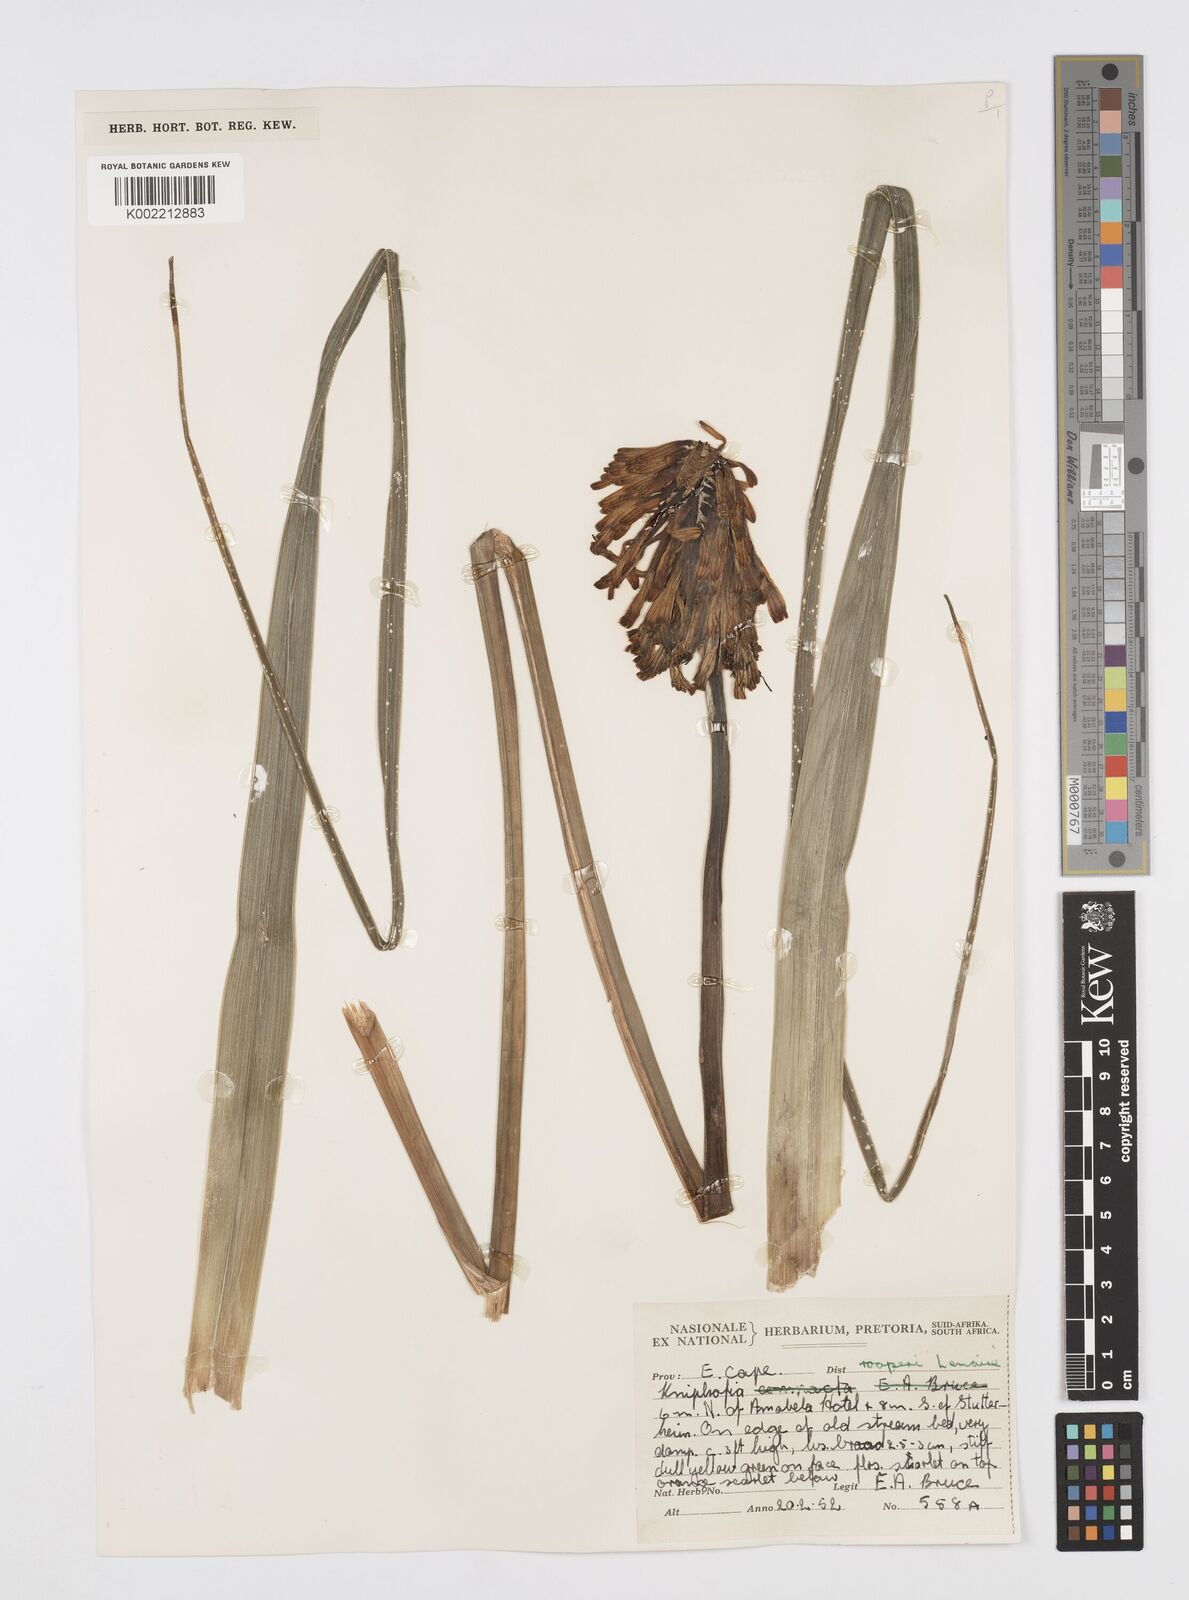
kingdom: Plantae
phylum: Tracheophyta
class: Liliopsida
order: Asparagales
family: Asphodelaceae
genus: Kniphofia
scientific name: Kniphofia uvaria
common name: Red-hot-poker
